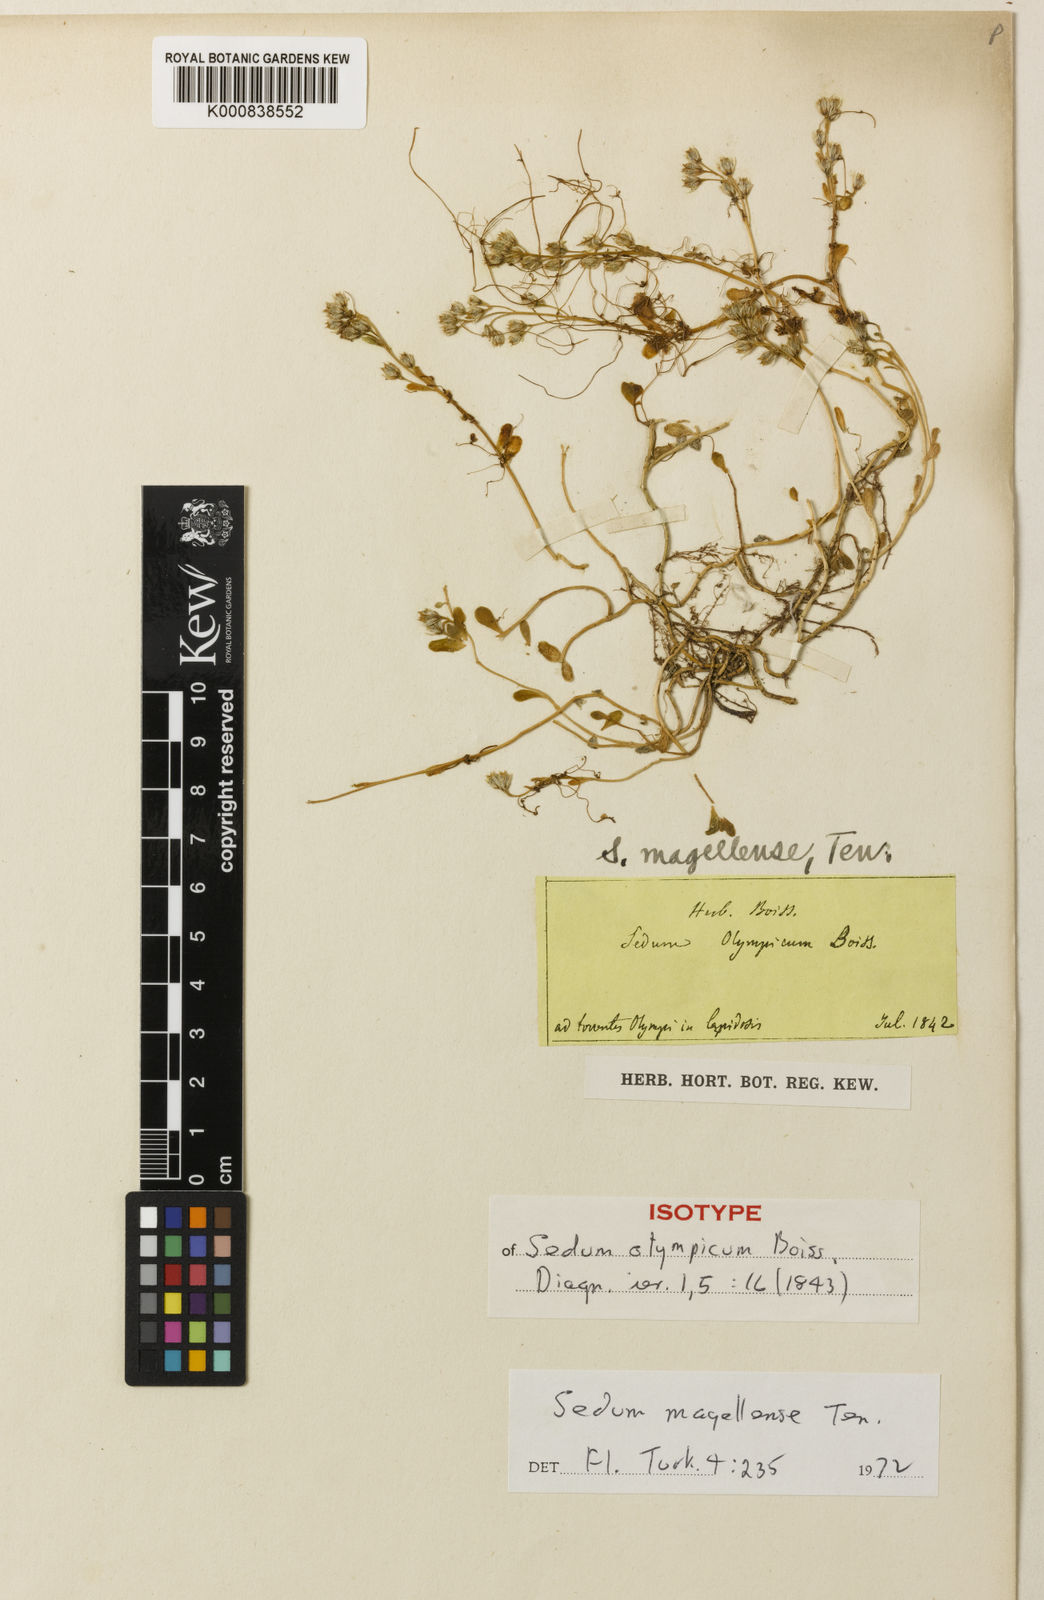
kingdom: Plantae
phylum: Tracheophyta
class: Magnoliopsida
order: Saxifragales
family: Crassulaceae
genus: Sedum
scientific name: Sedum magellense
